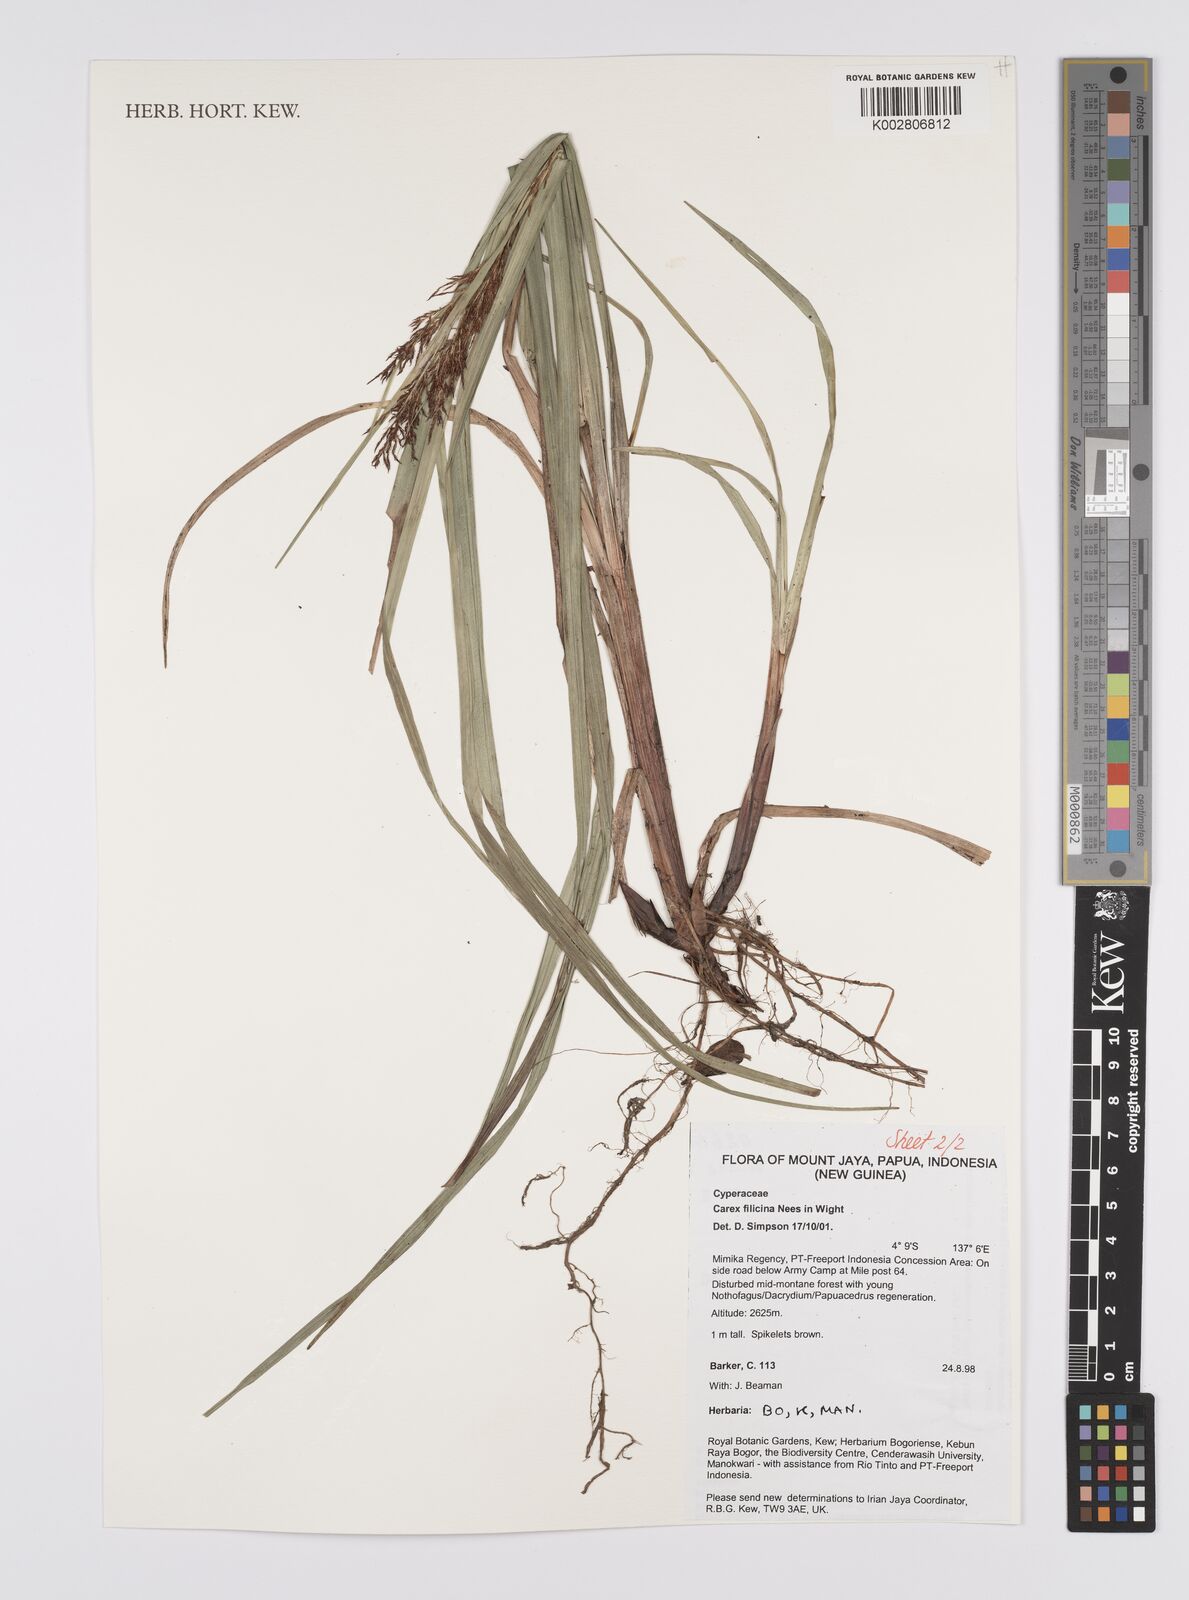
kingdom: Plantae
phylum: Tracheophyta
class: Liliopsida
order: Poales
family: Cyperaceae
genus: Carex
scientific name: Carex filicina
